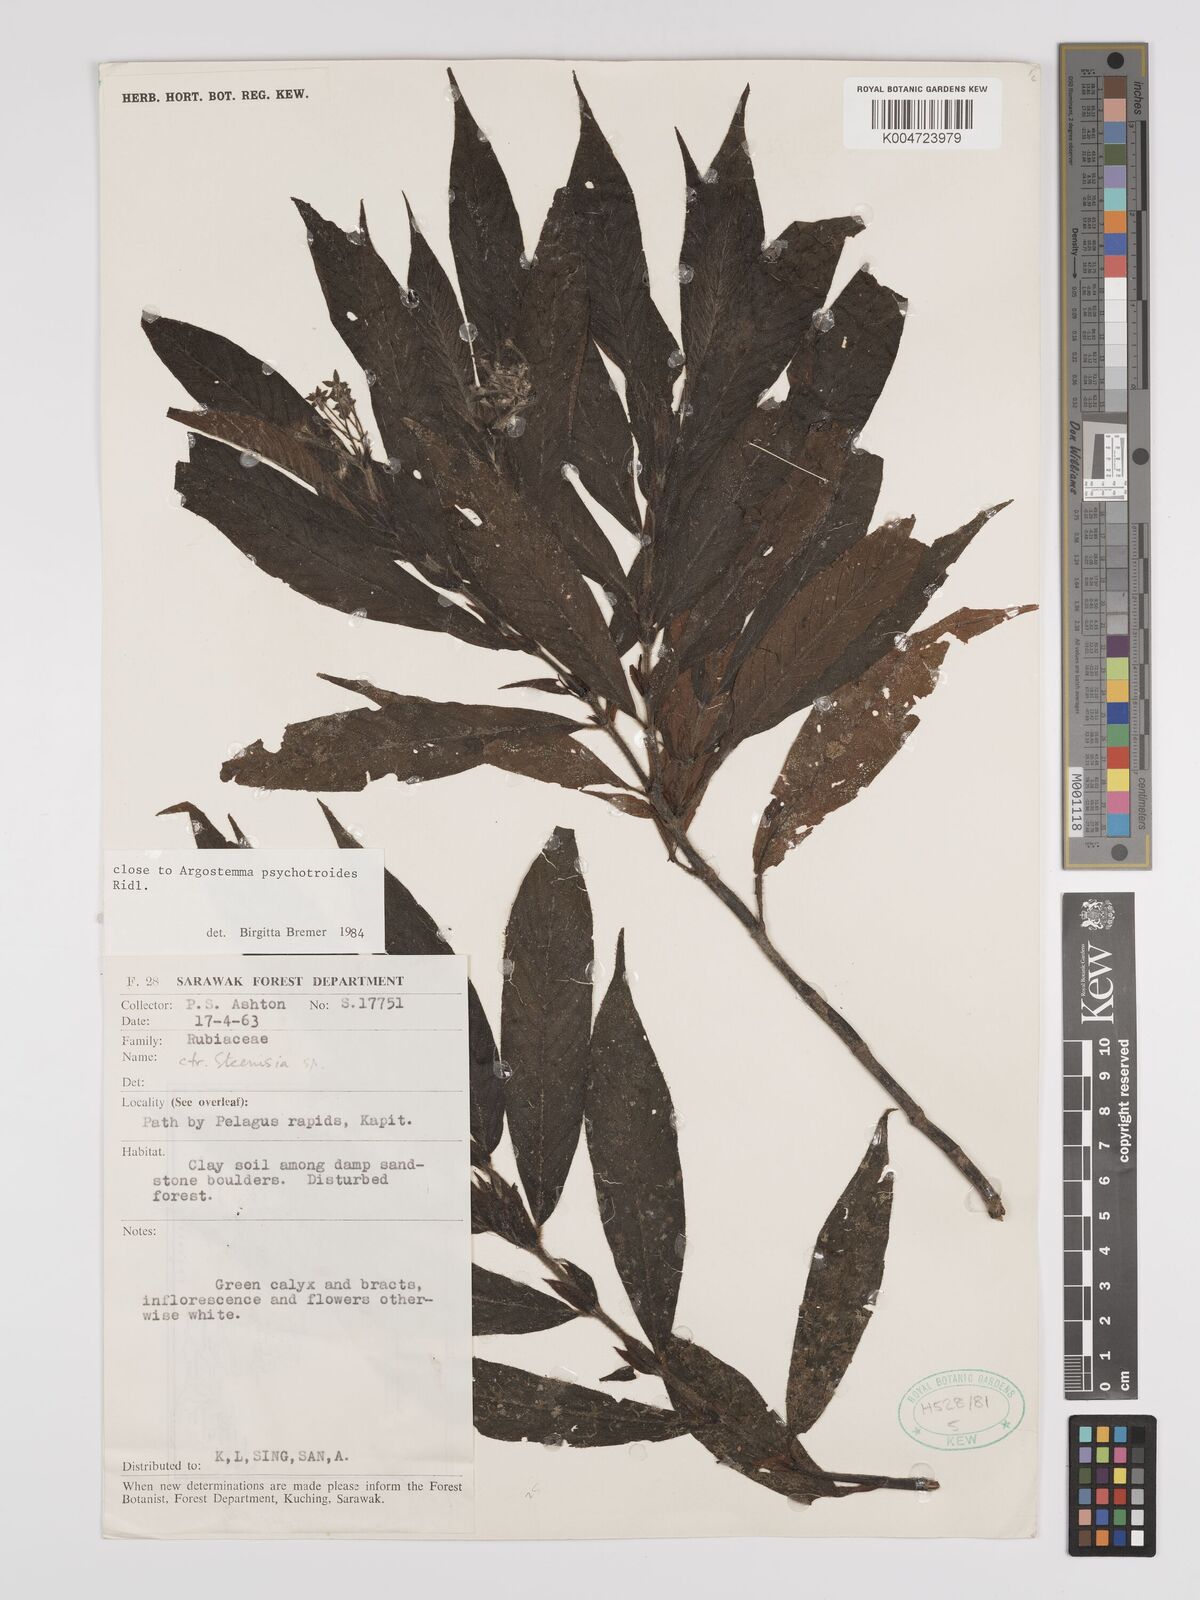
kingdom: Plantae
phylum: Tracheophyta
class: Magnoliopsida
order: Gentianales
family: Rubiaceae
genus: Argostemma
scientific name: Argostemma psychotrioides
